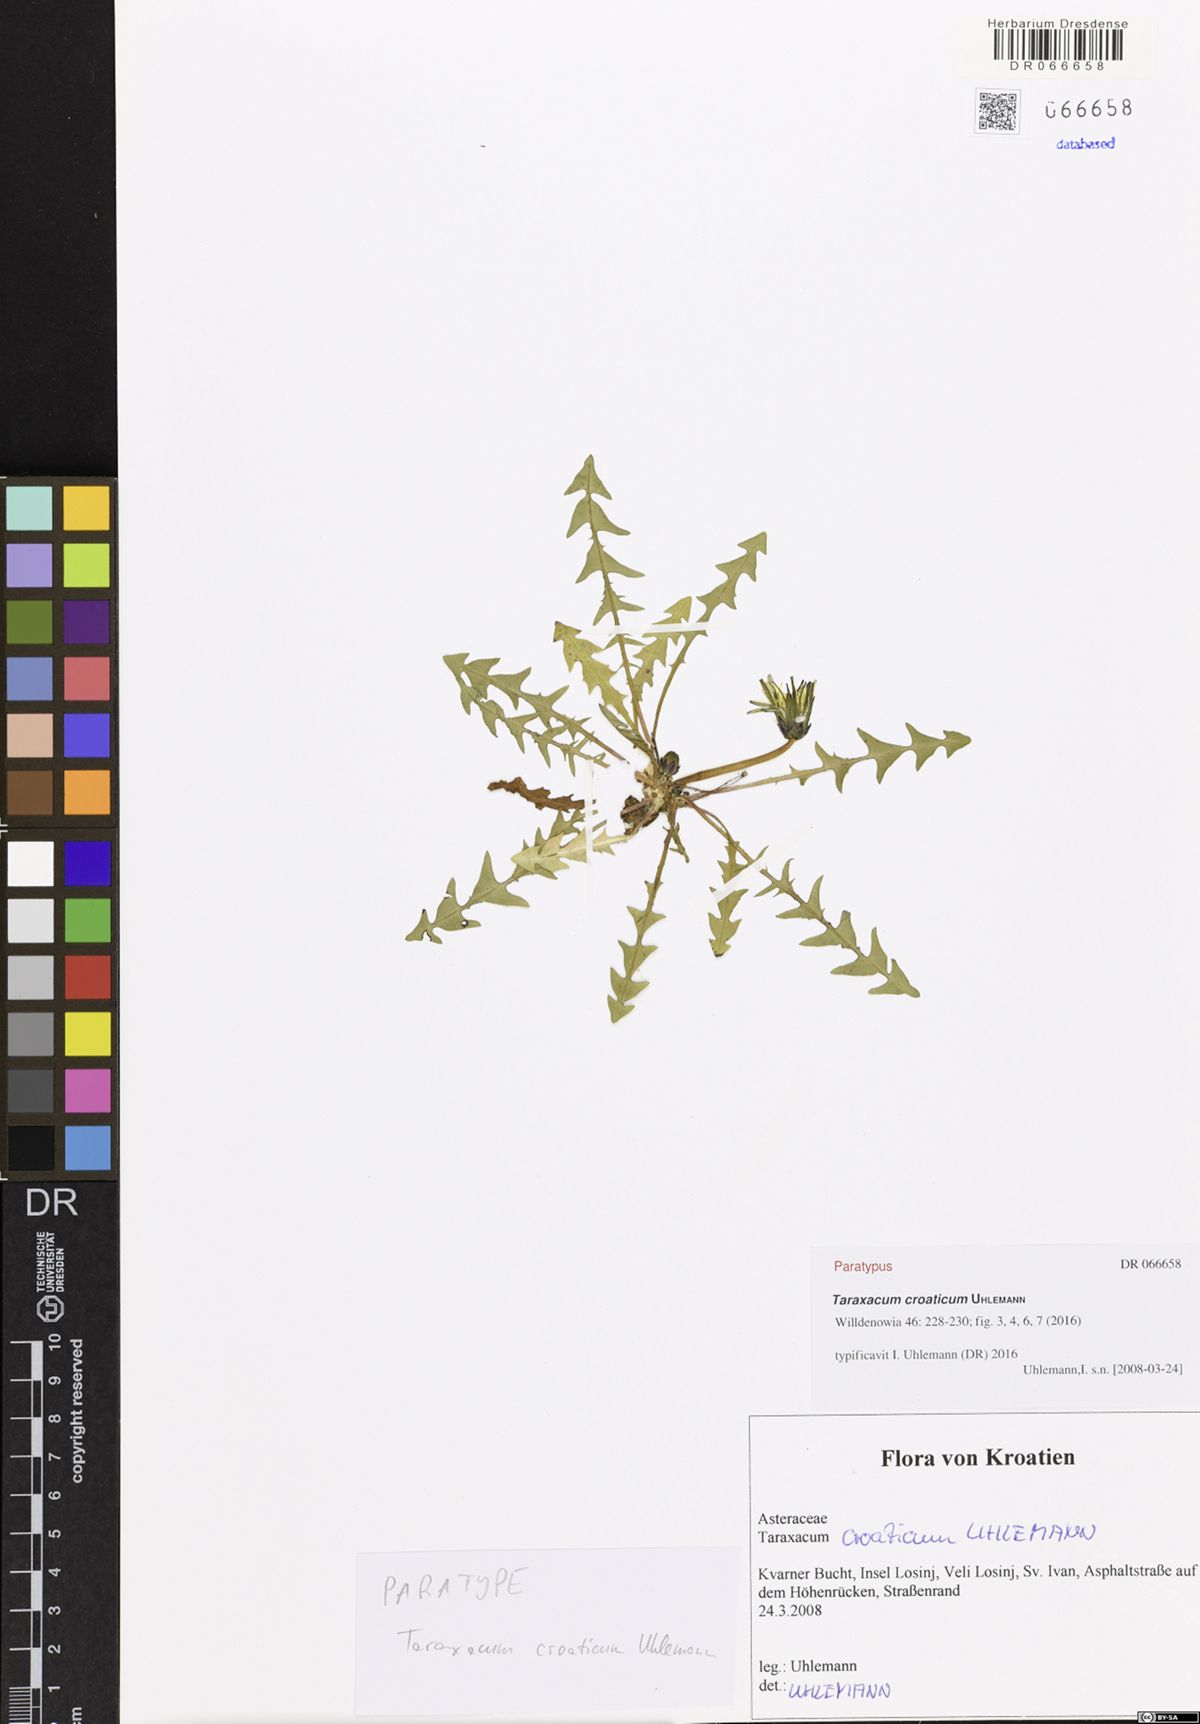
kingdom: Plantae
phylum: Tracheophyta
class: Magnoliopsida
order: Asterales
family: Asteraceae
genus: Taraxacum
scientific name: Taraxacum croaticum
